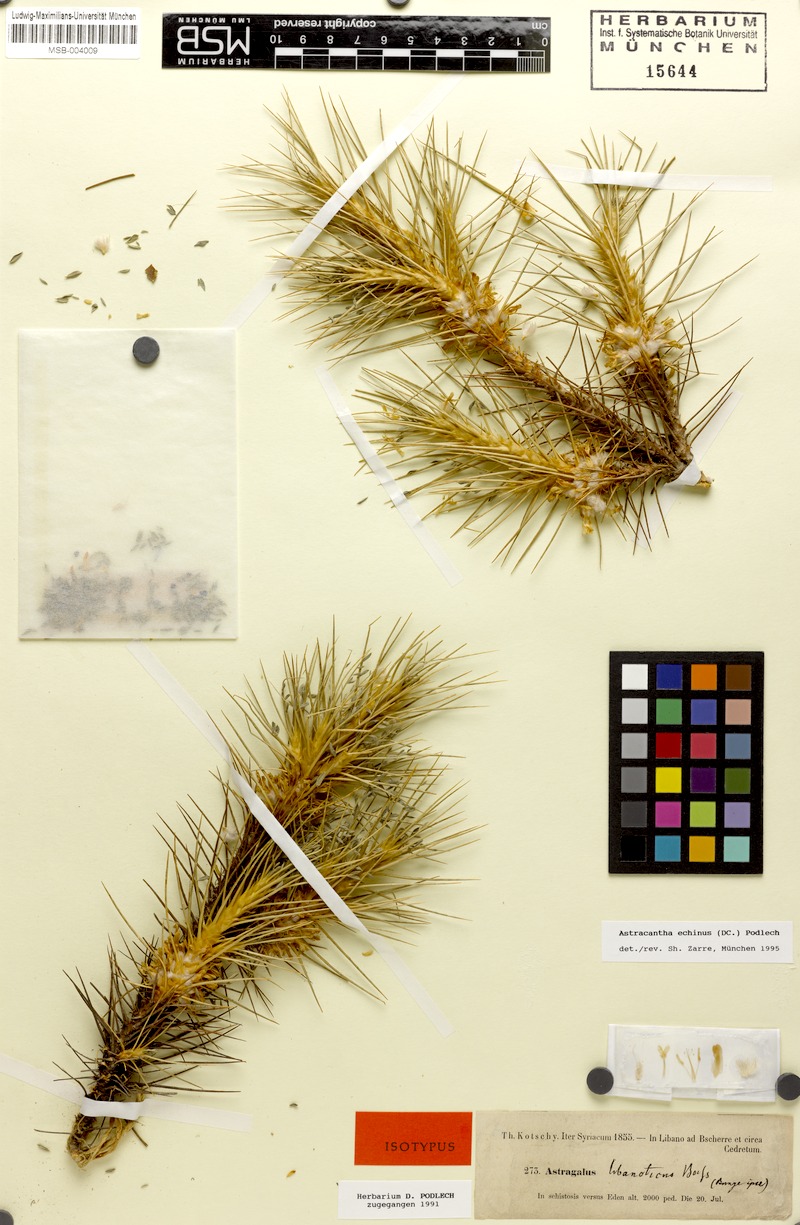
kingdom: Plantae
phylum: Tracheophyta
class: Magnoliopsida
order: Fabales
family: Fabaceae
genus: Astragalus
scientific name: Astragalus echinus
